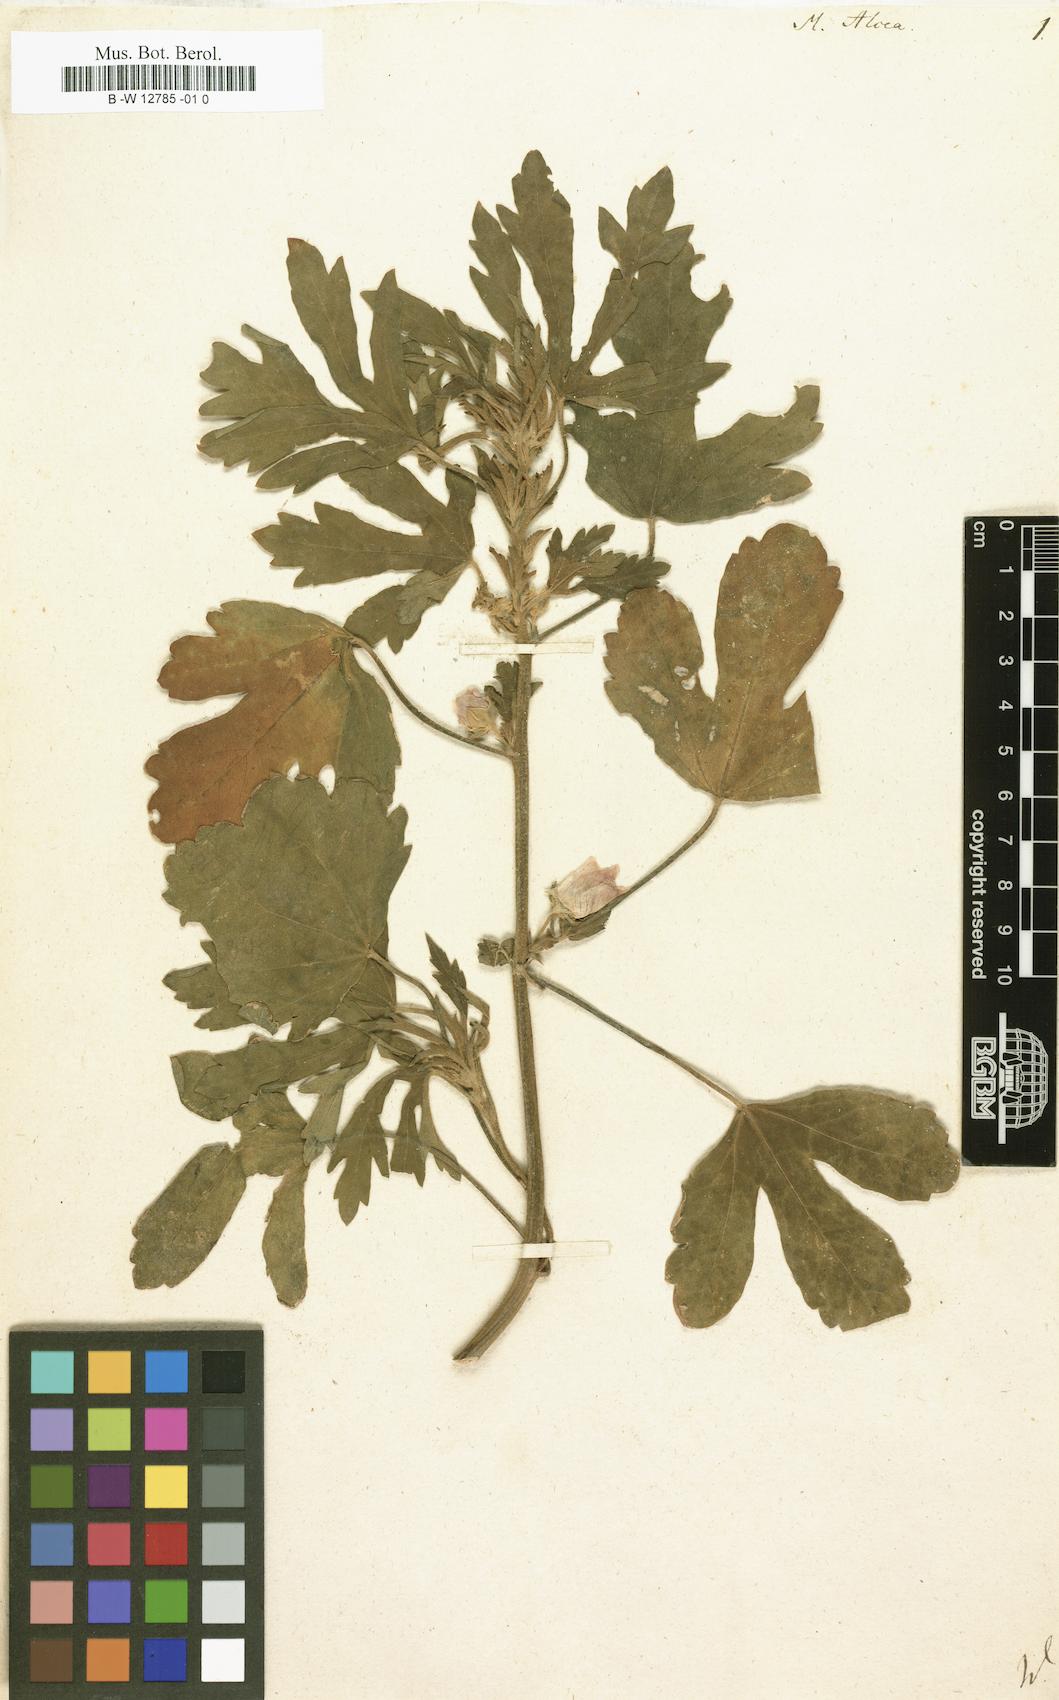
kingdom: Plantae
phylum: Tracheophyta
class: Magnoliopsida
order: Malvales
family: Malvaceae
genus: Malva
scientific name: Malva alcea
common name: Greater musk-mallow
